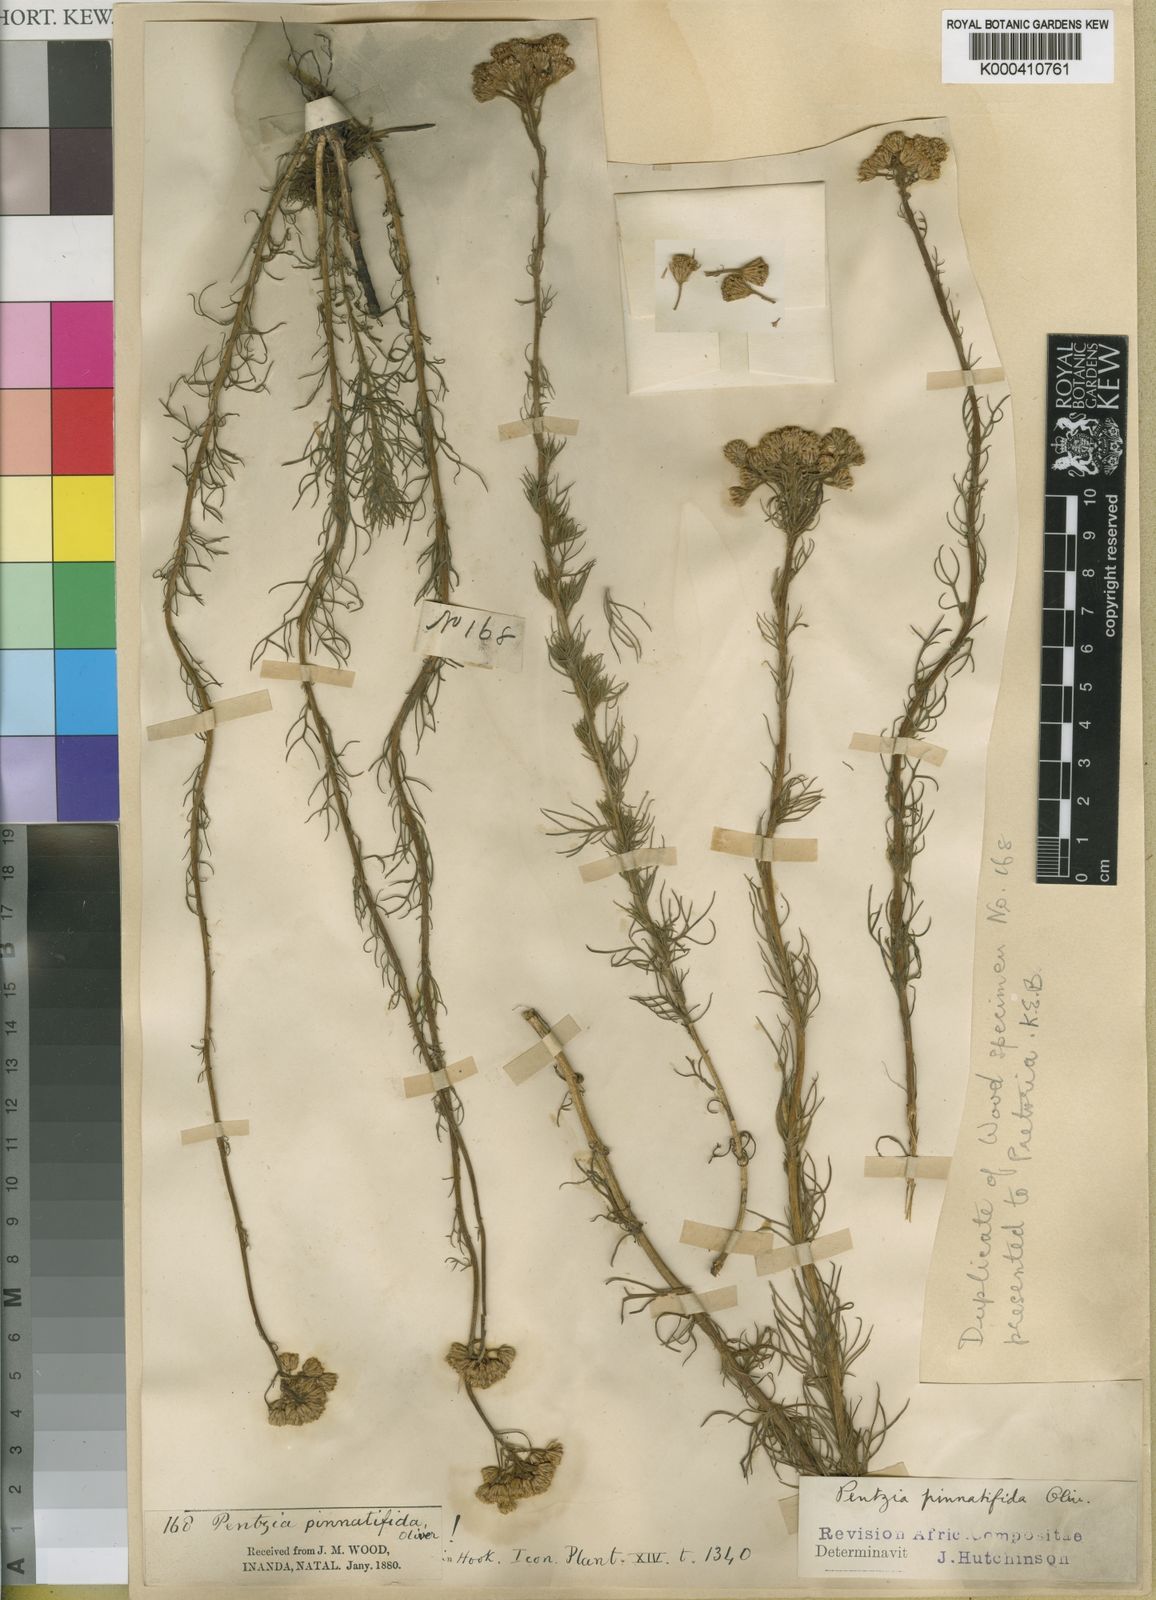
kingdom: Plantae
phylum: Tracheophyta
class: Magnoliopsida
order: Asterales
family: Asteraceae
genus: Phymaspermum
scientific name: Phymaspermum
